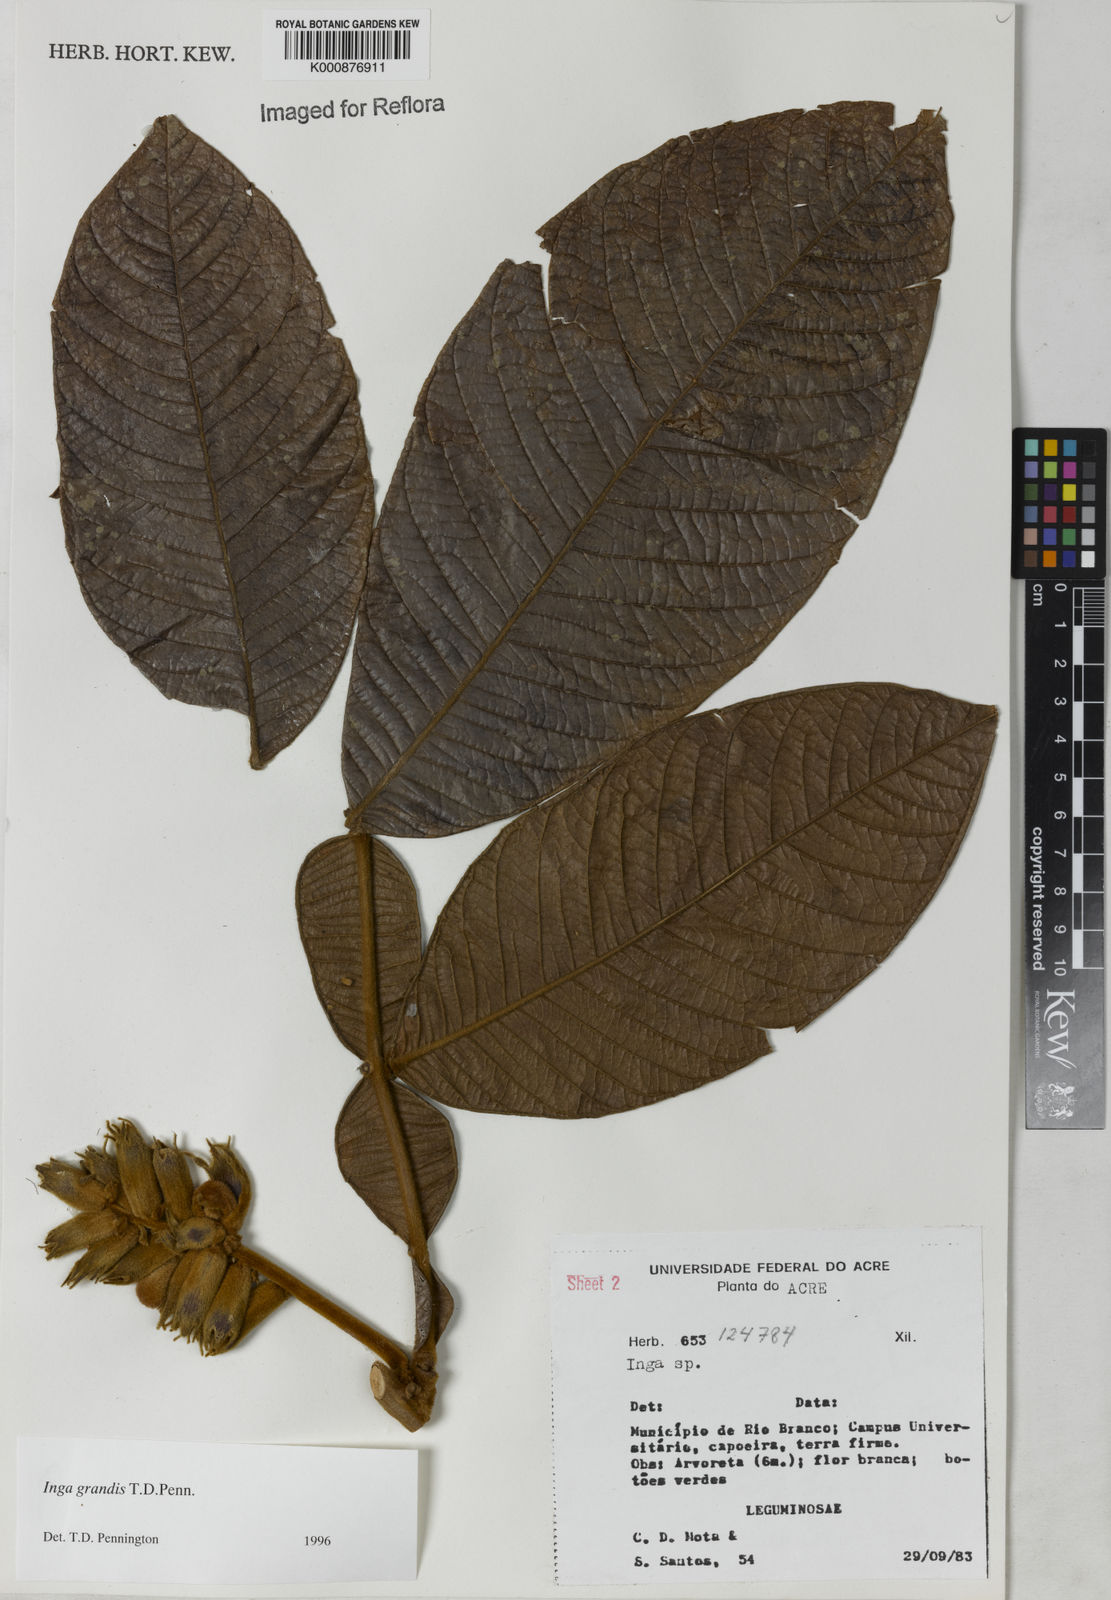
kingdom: Plantae
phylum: Tracheophyta
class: Magnoliopsida
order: Fabales
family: Fabaceae
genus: Inga
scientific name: Inga grandis
